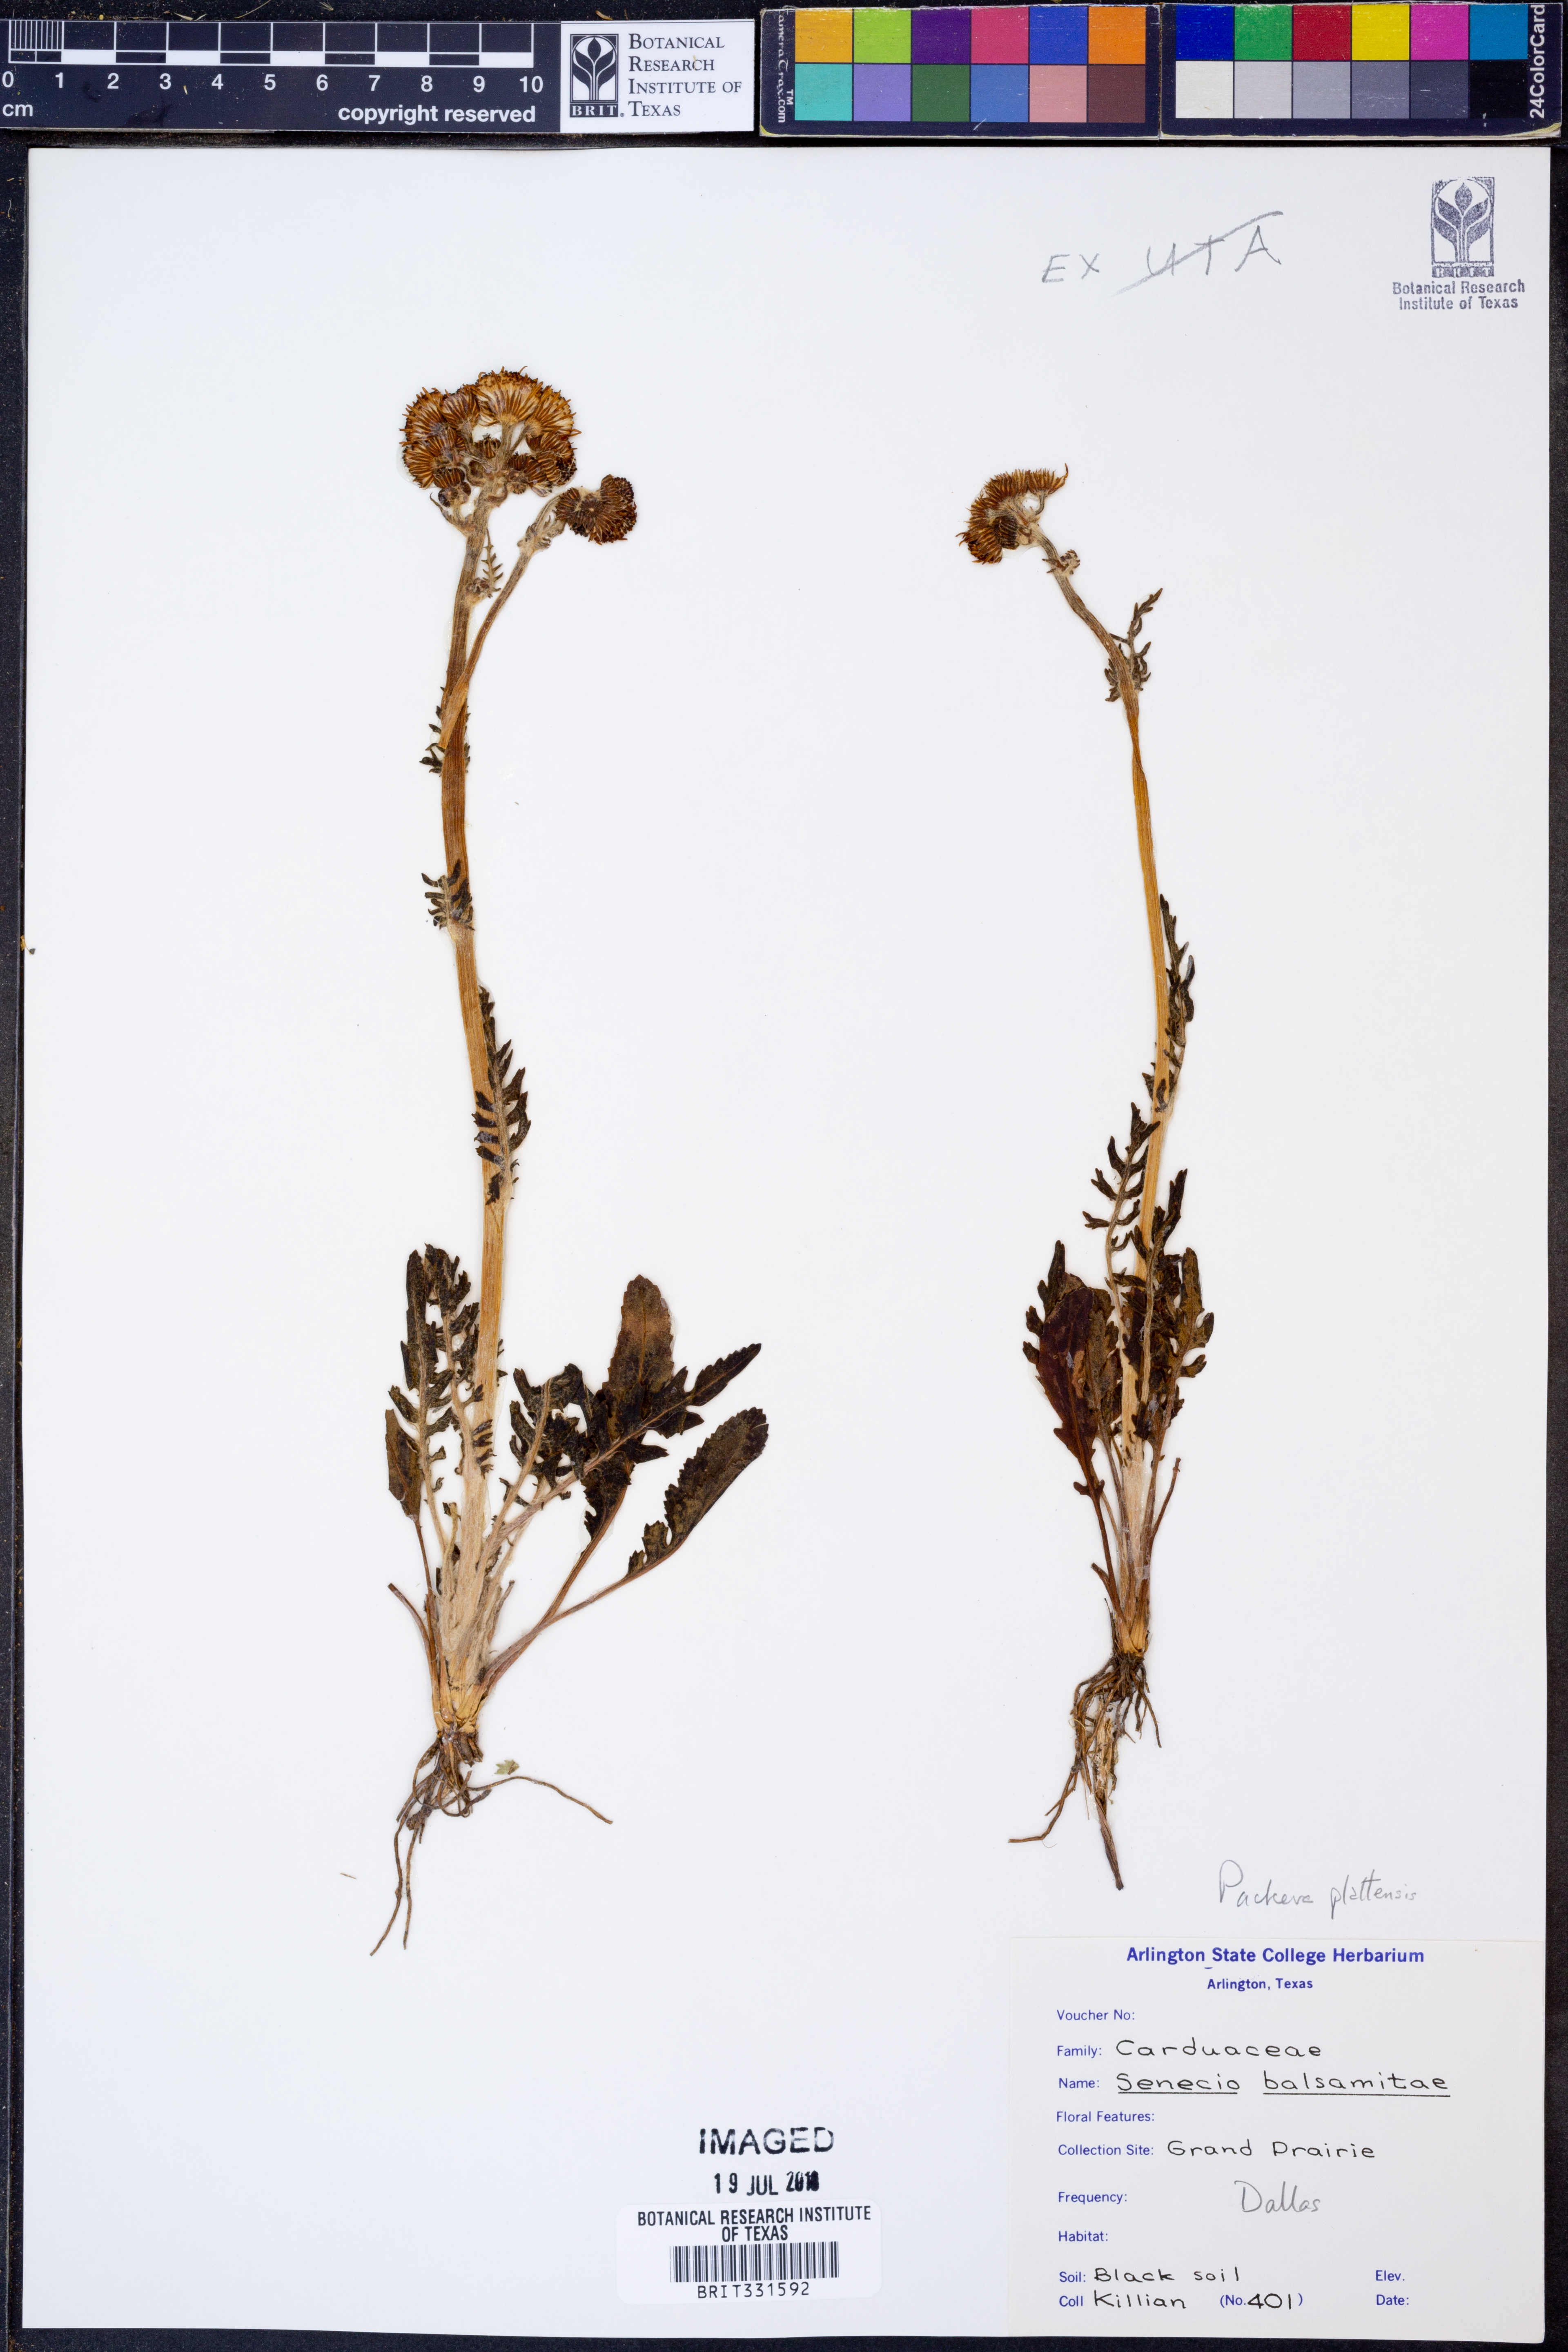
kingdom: Plantae
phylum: Tracheophyta
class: Magnoliopsida
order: Asterales
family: Asteraceae
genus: Senecio
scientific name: Senecio balsamitae
